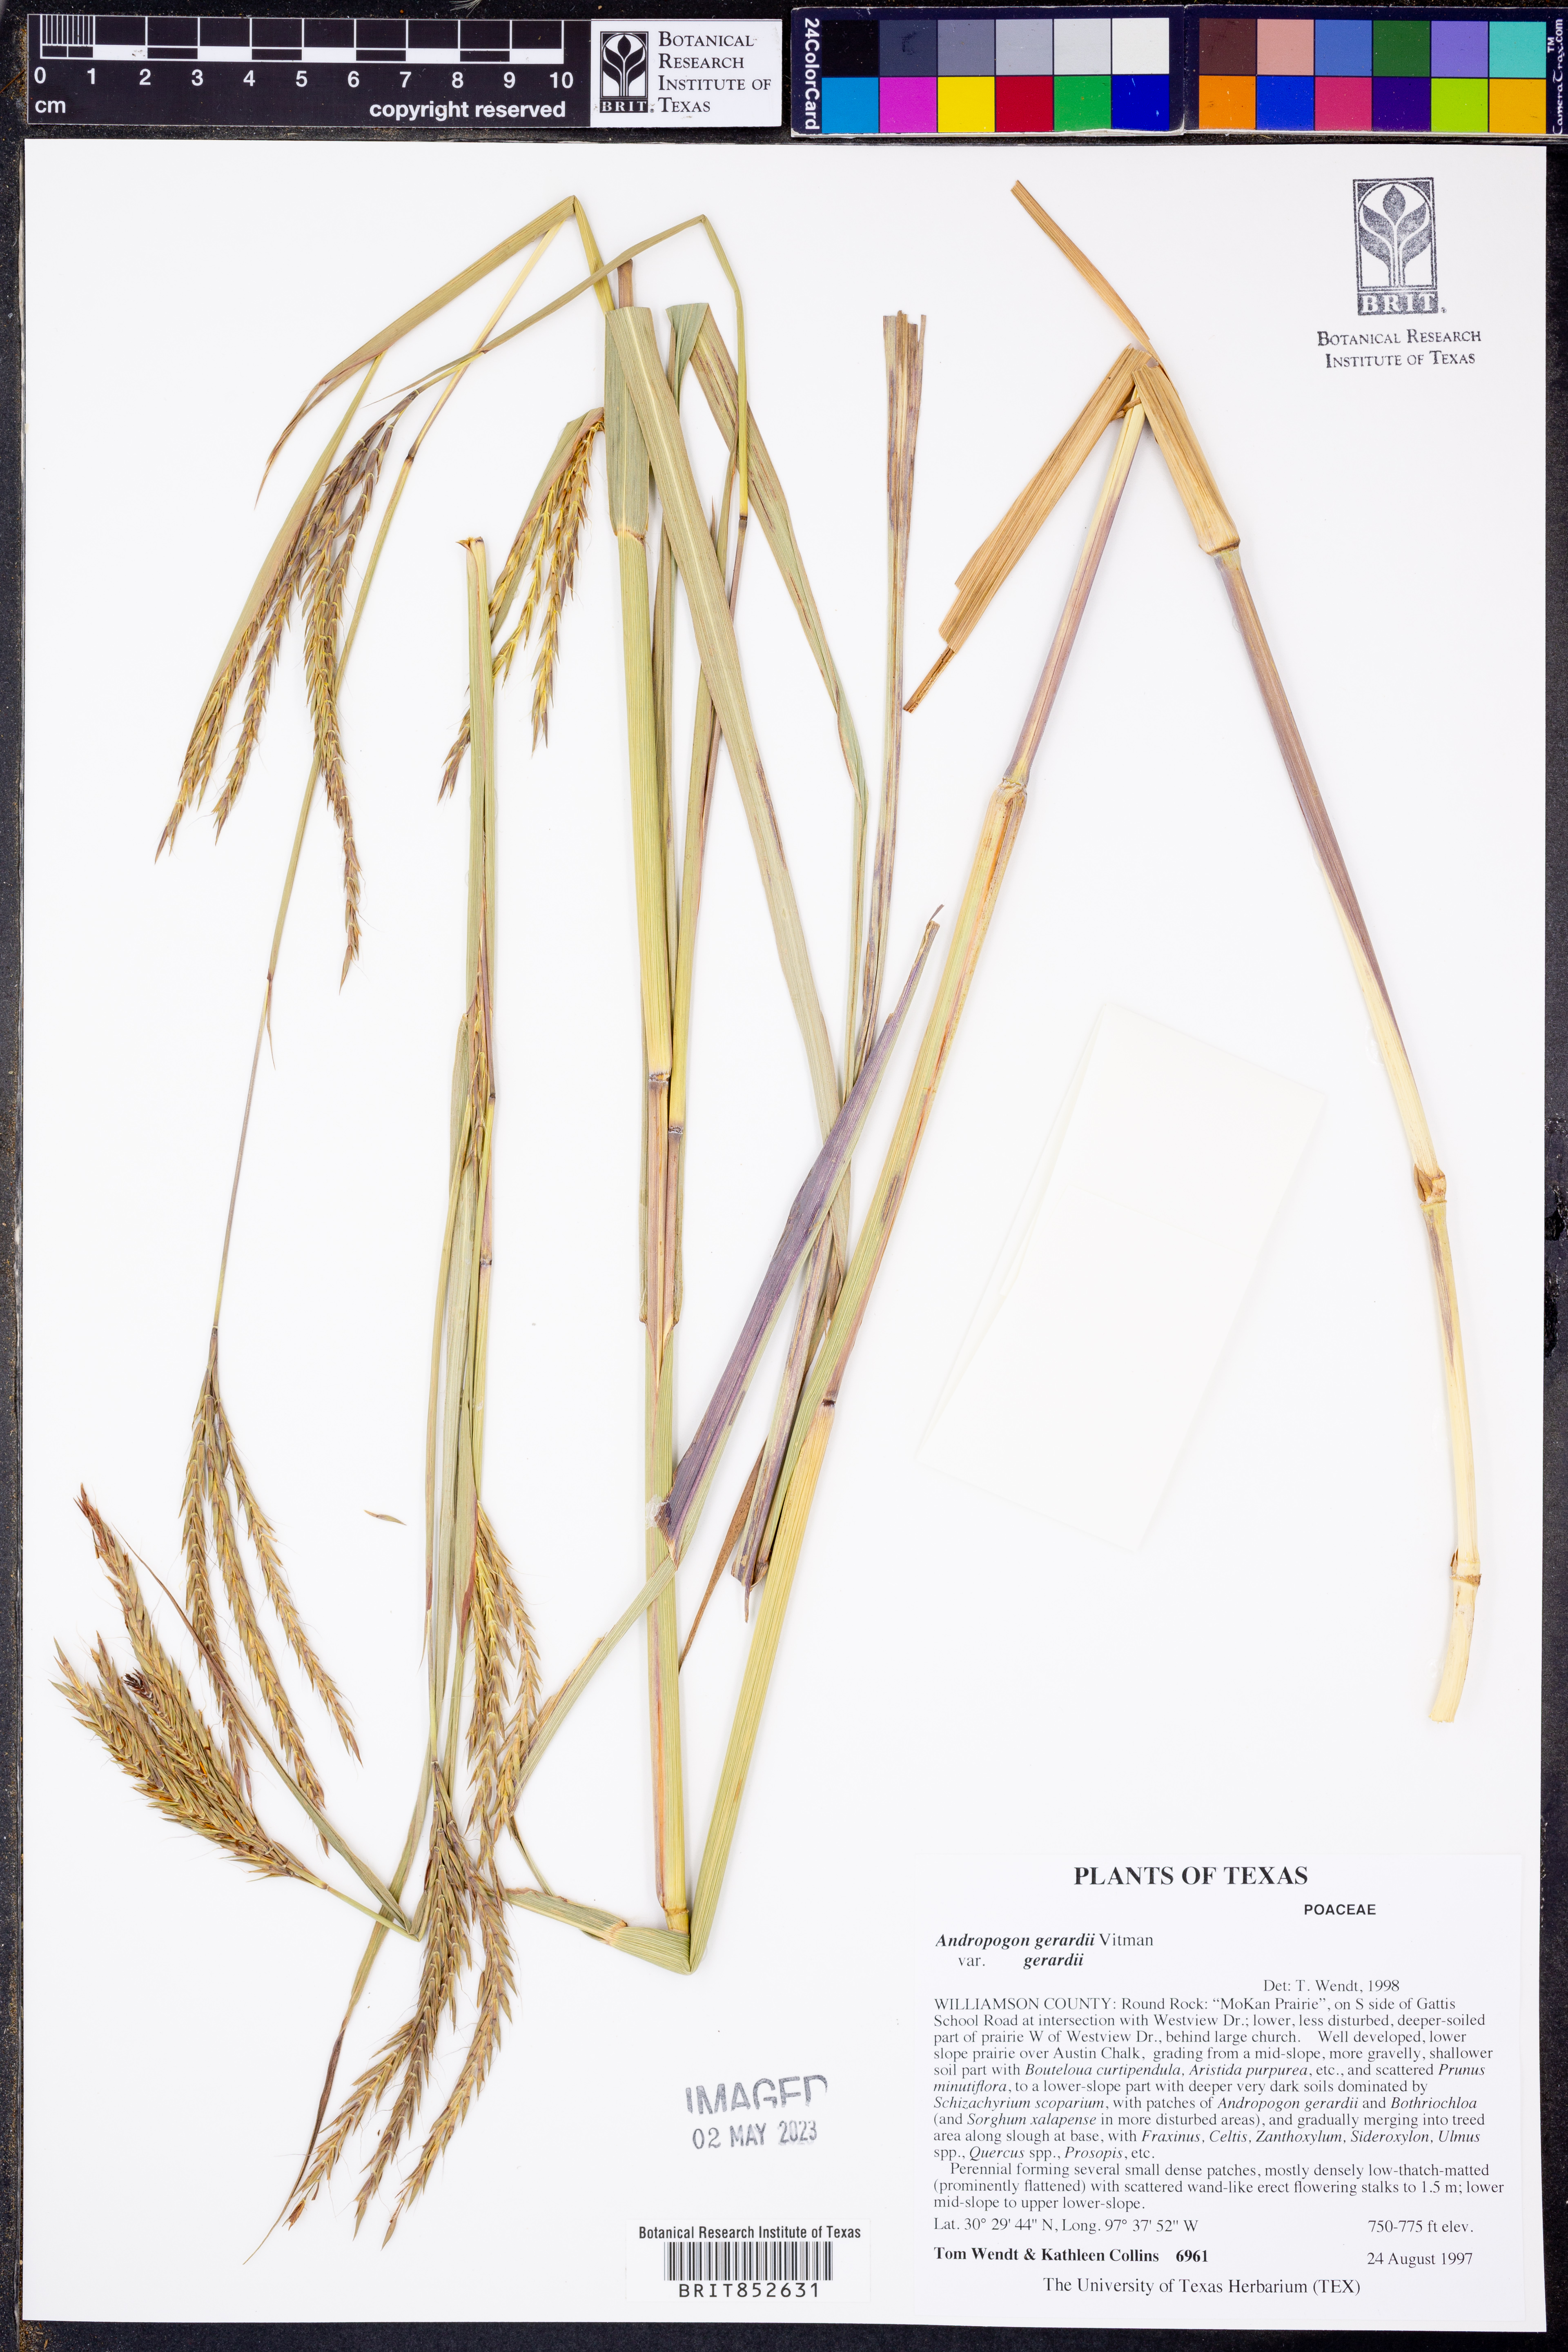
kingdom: Plantae
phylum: Tracheophyta
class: Liliopsida
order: Poales
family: Poaceae
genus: Andropogon
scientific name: Andropogon gerardi
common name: Big bluestem
